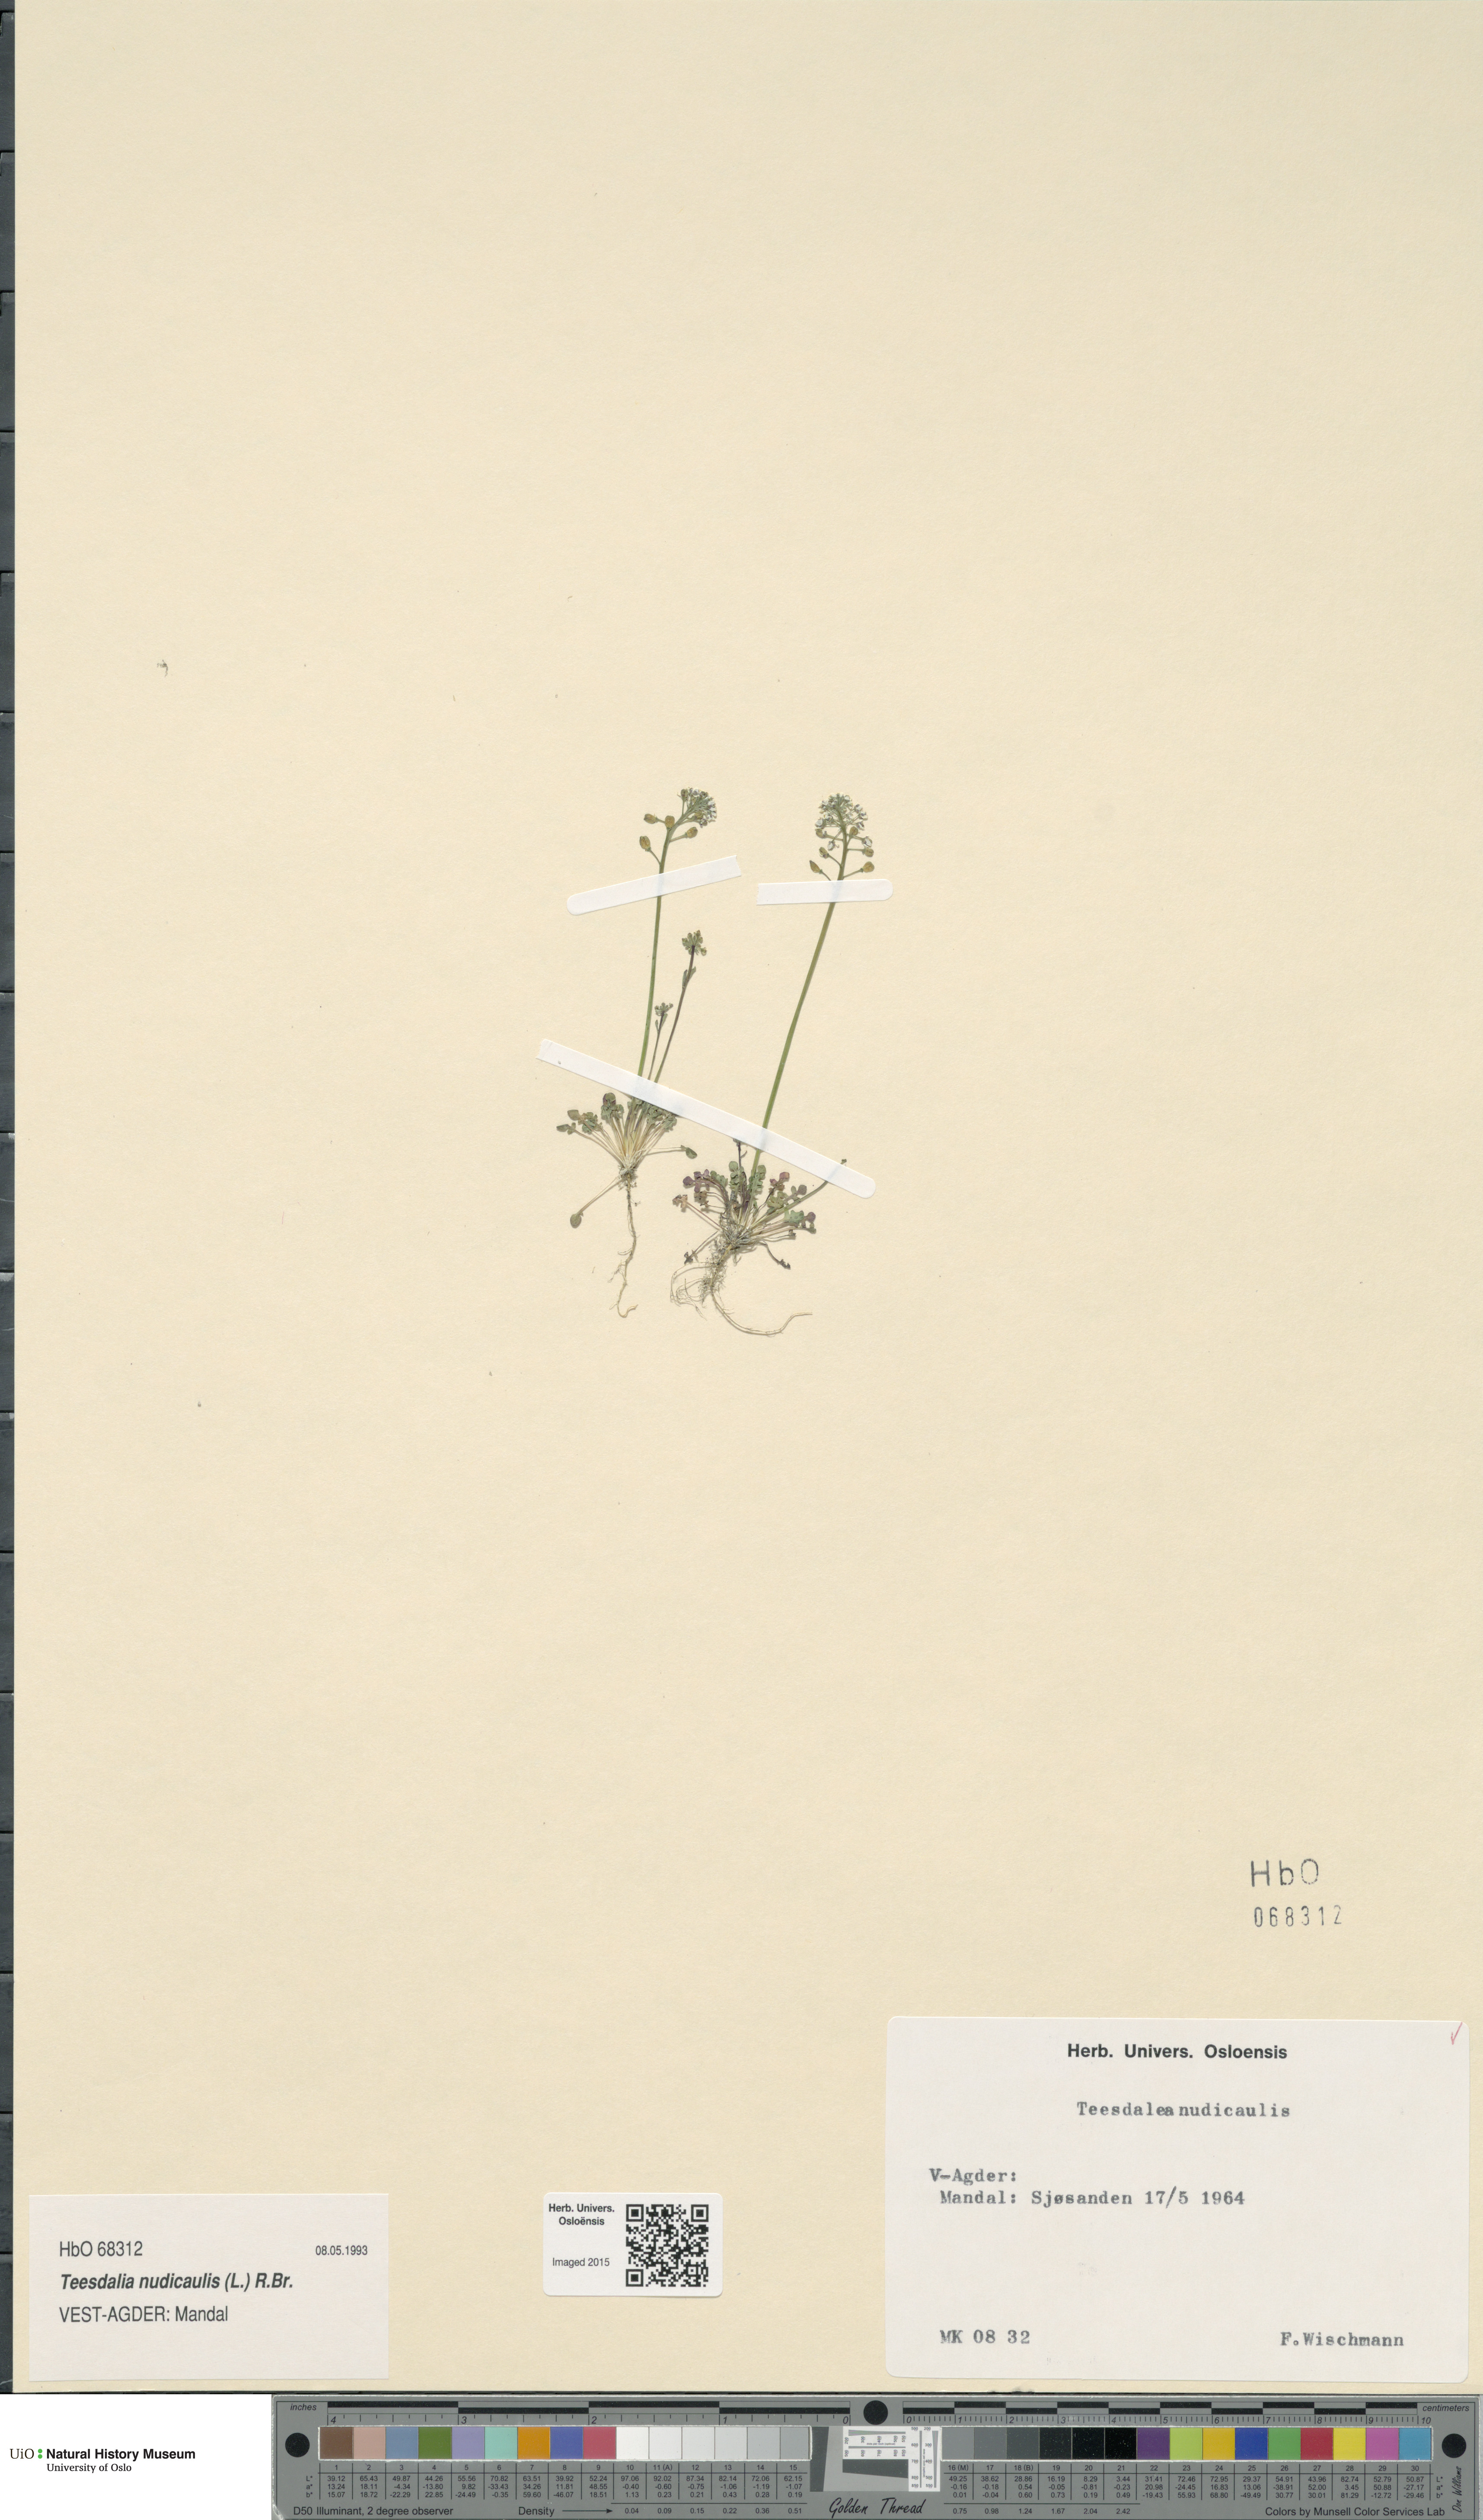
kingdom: Plantae
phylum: Tracheophyta
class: Magnoliopsida
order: Brassicales
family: Brassicaceae
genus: Teesdalia
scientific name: Teesdalia nudicaulis
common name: Shepherd's cress
